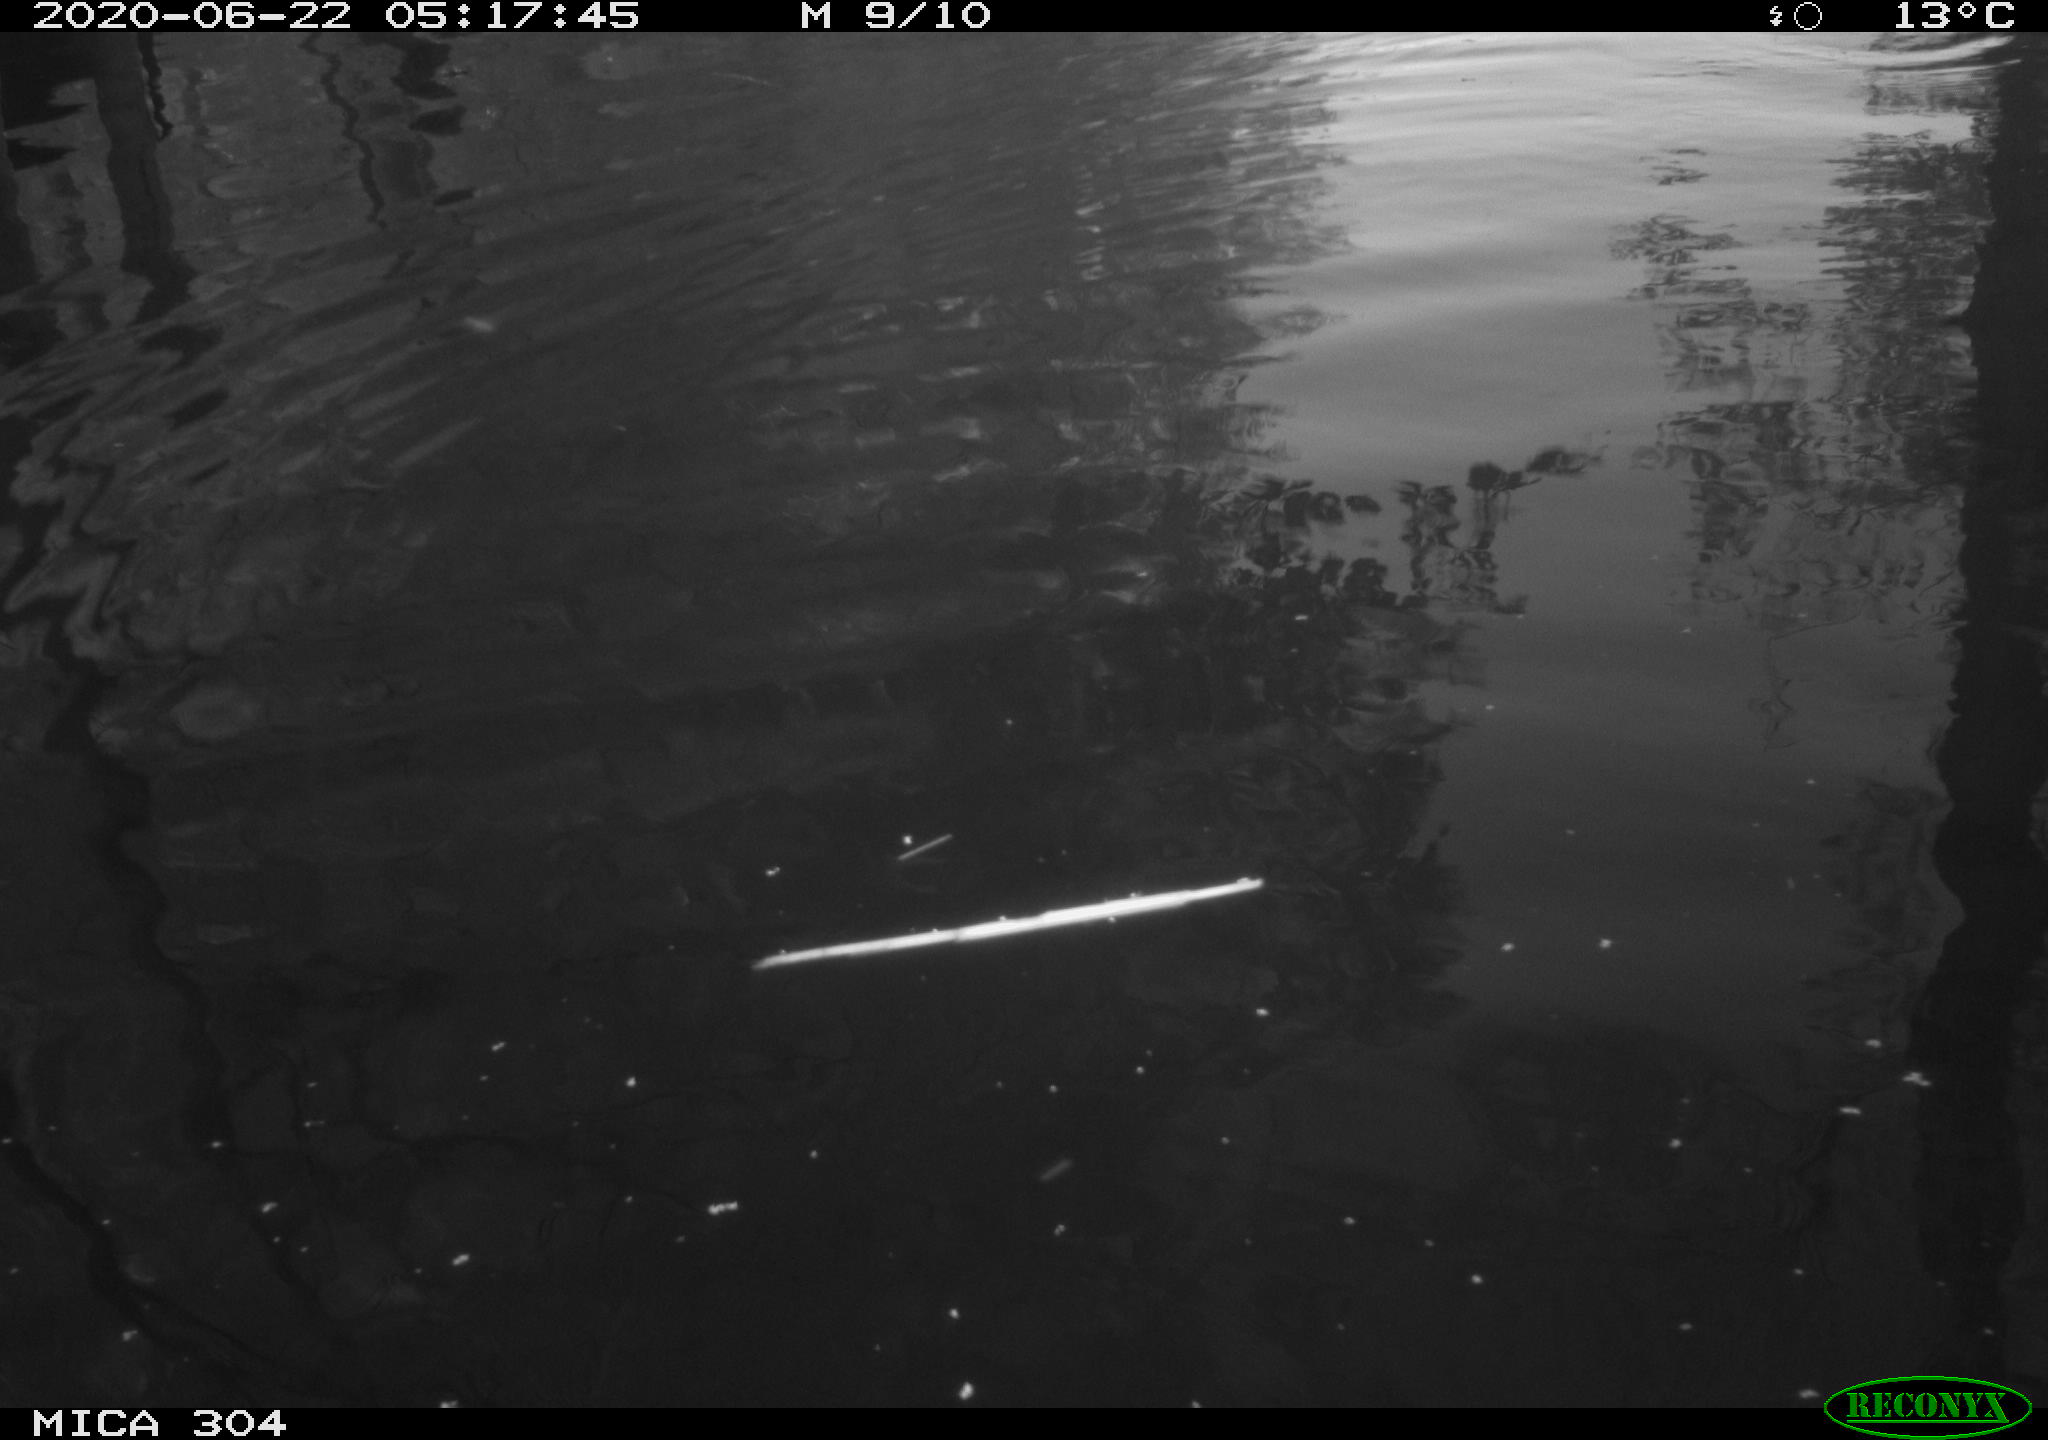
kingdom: Animalia
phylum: Chordata
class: Aves
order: Gruiformes
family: Rallidae
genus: Gallinula
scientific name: Gallinula chloropus
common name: Common moorhen
